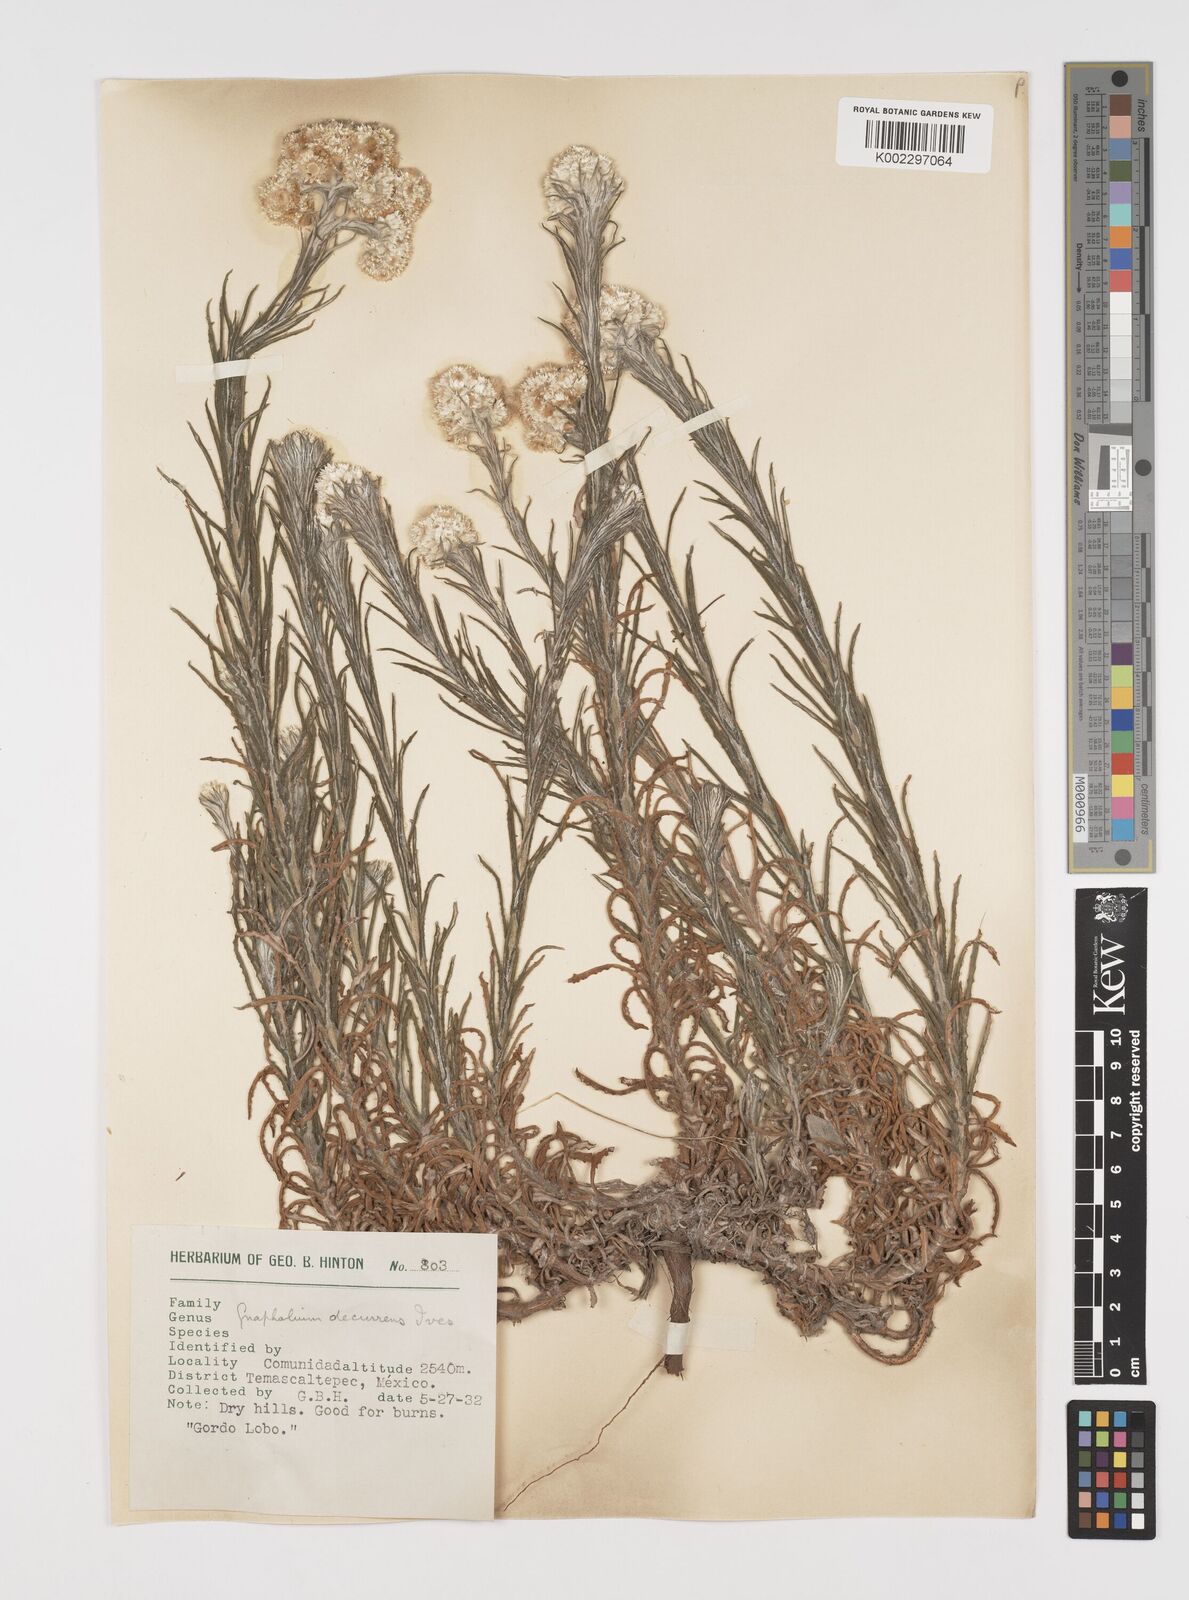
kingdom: Plantae
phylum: Tracheophyta
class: Magnoliopsida
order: Asterales
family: Asteraceae
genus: Pseudognaphalium
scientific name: Pseudognaphalium
